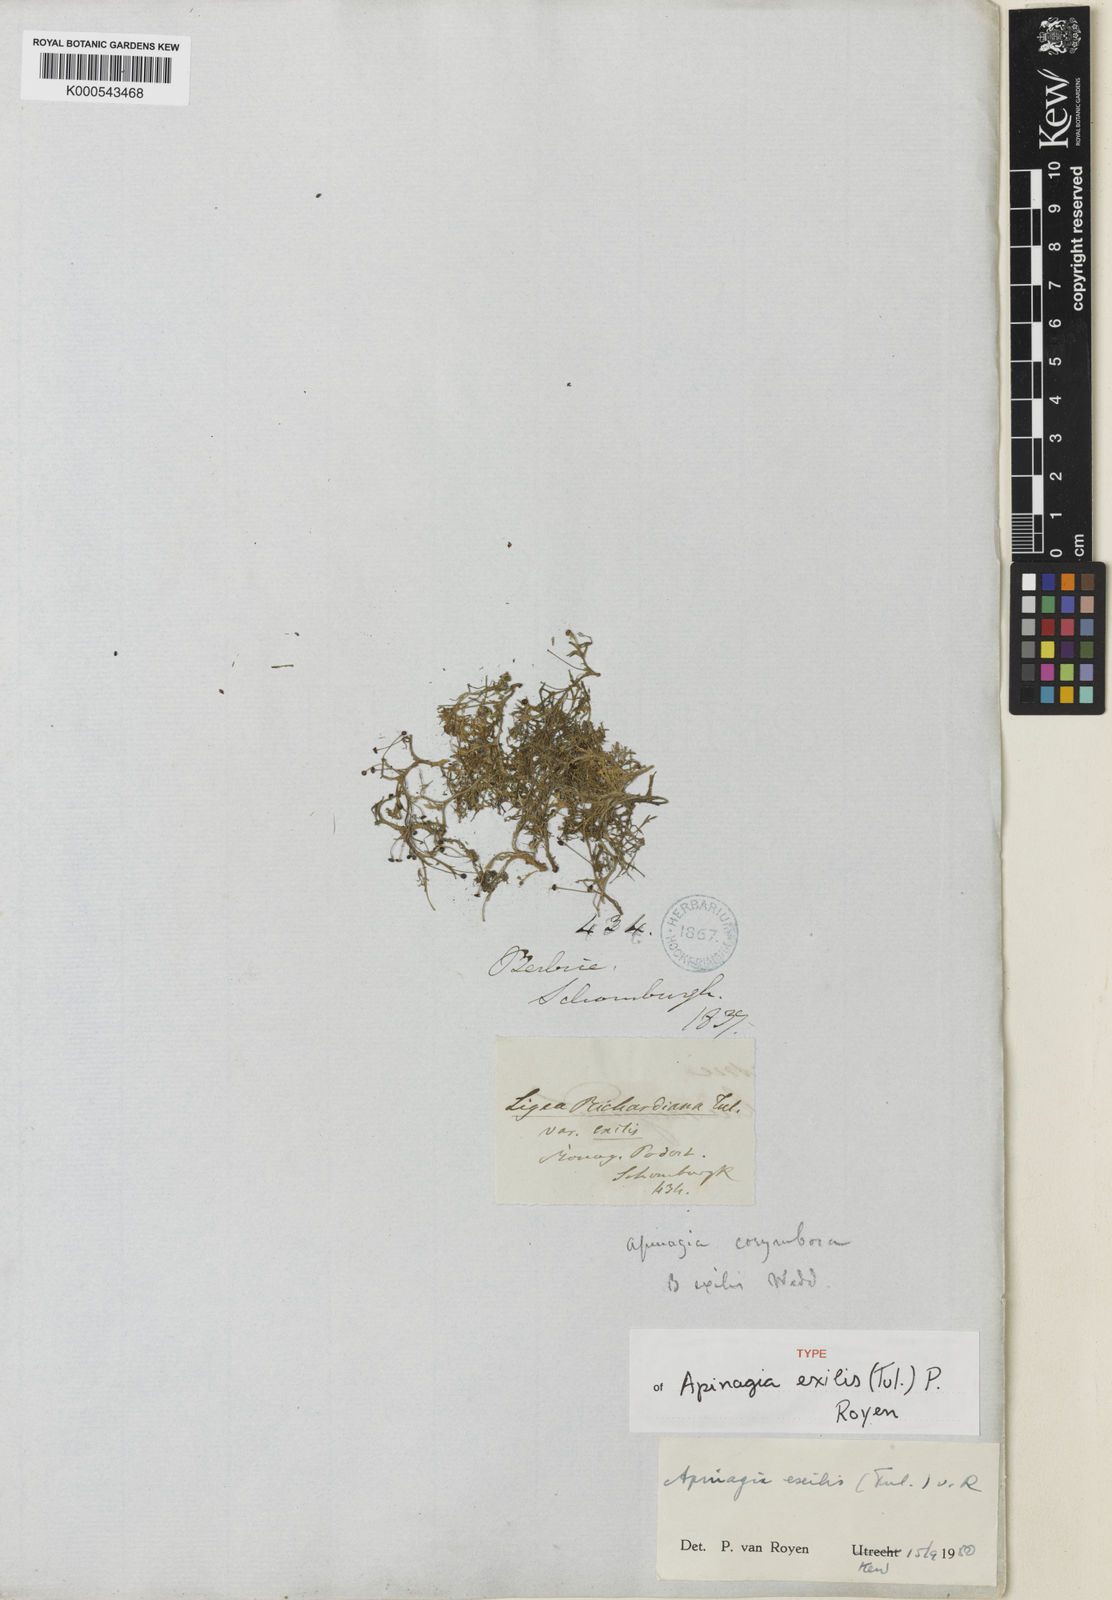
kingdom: Plantae
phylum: Tracheophyta
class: Magnoliopsida
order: Malpighiales
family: Podostemaceae
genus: Apinagia
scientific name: Apinagia exilis
